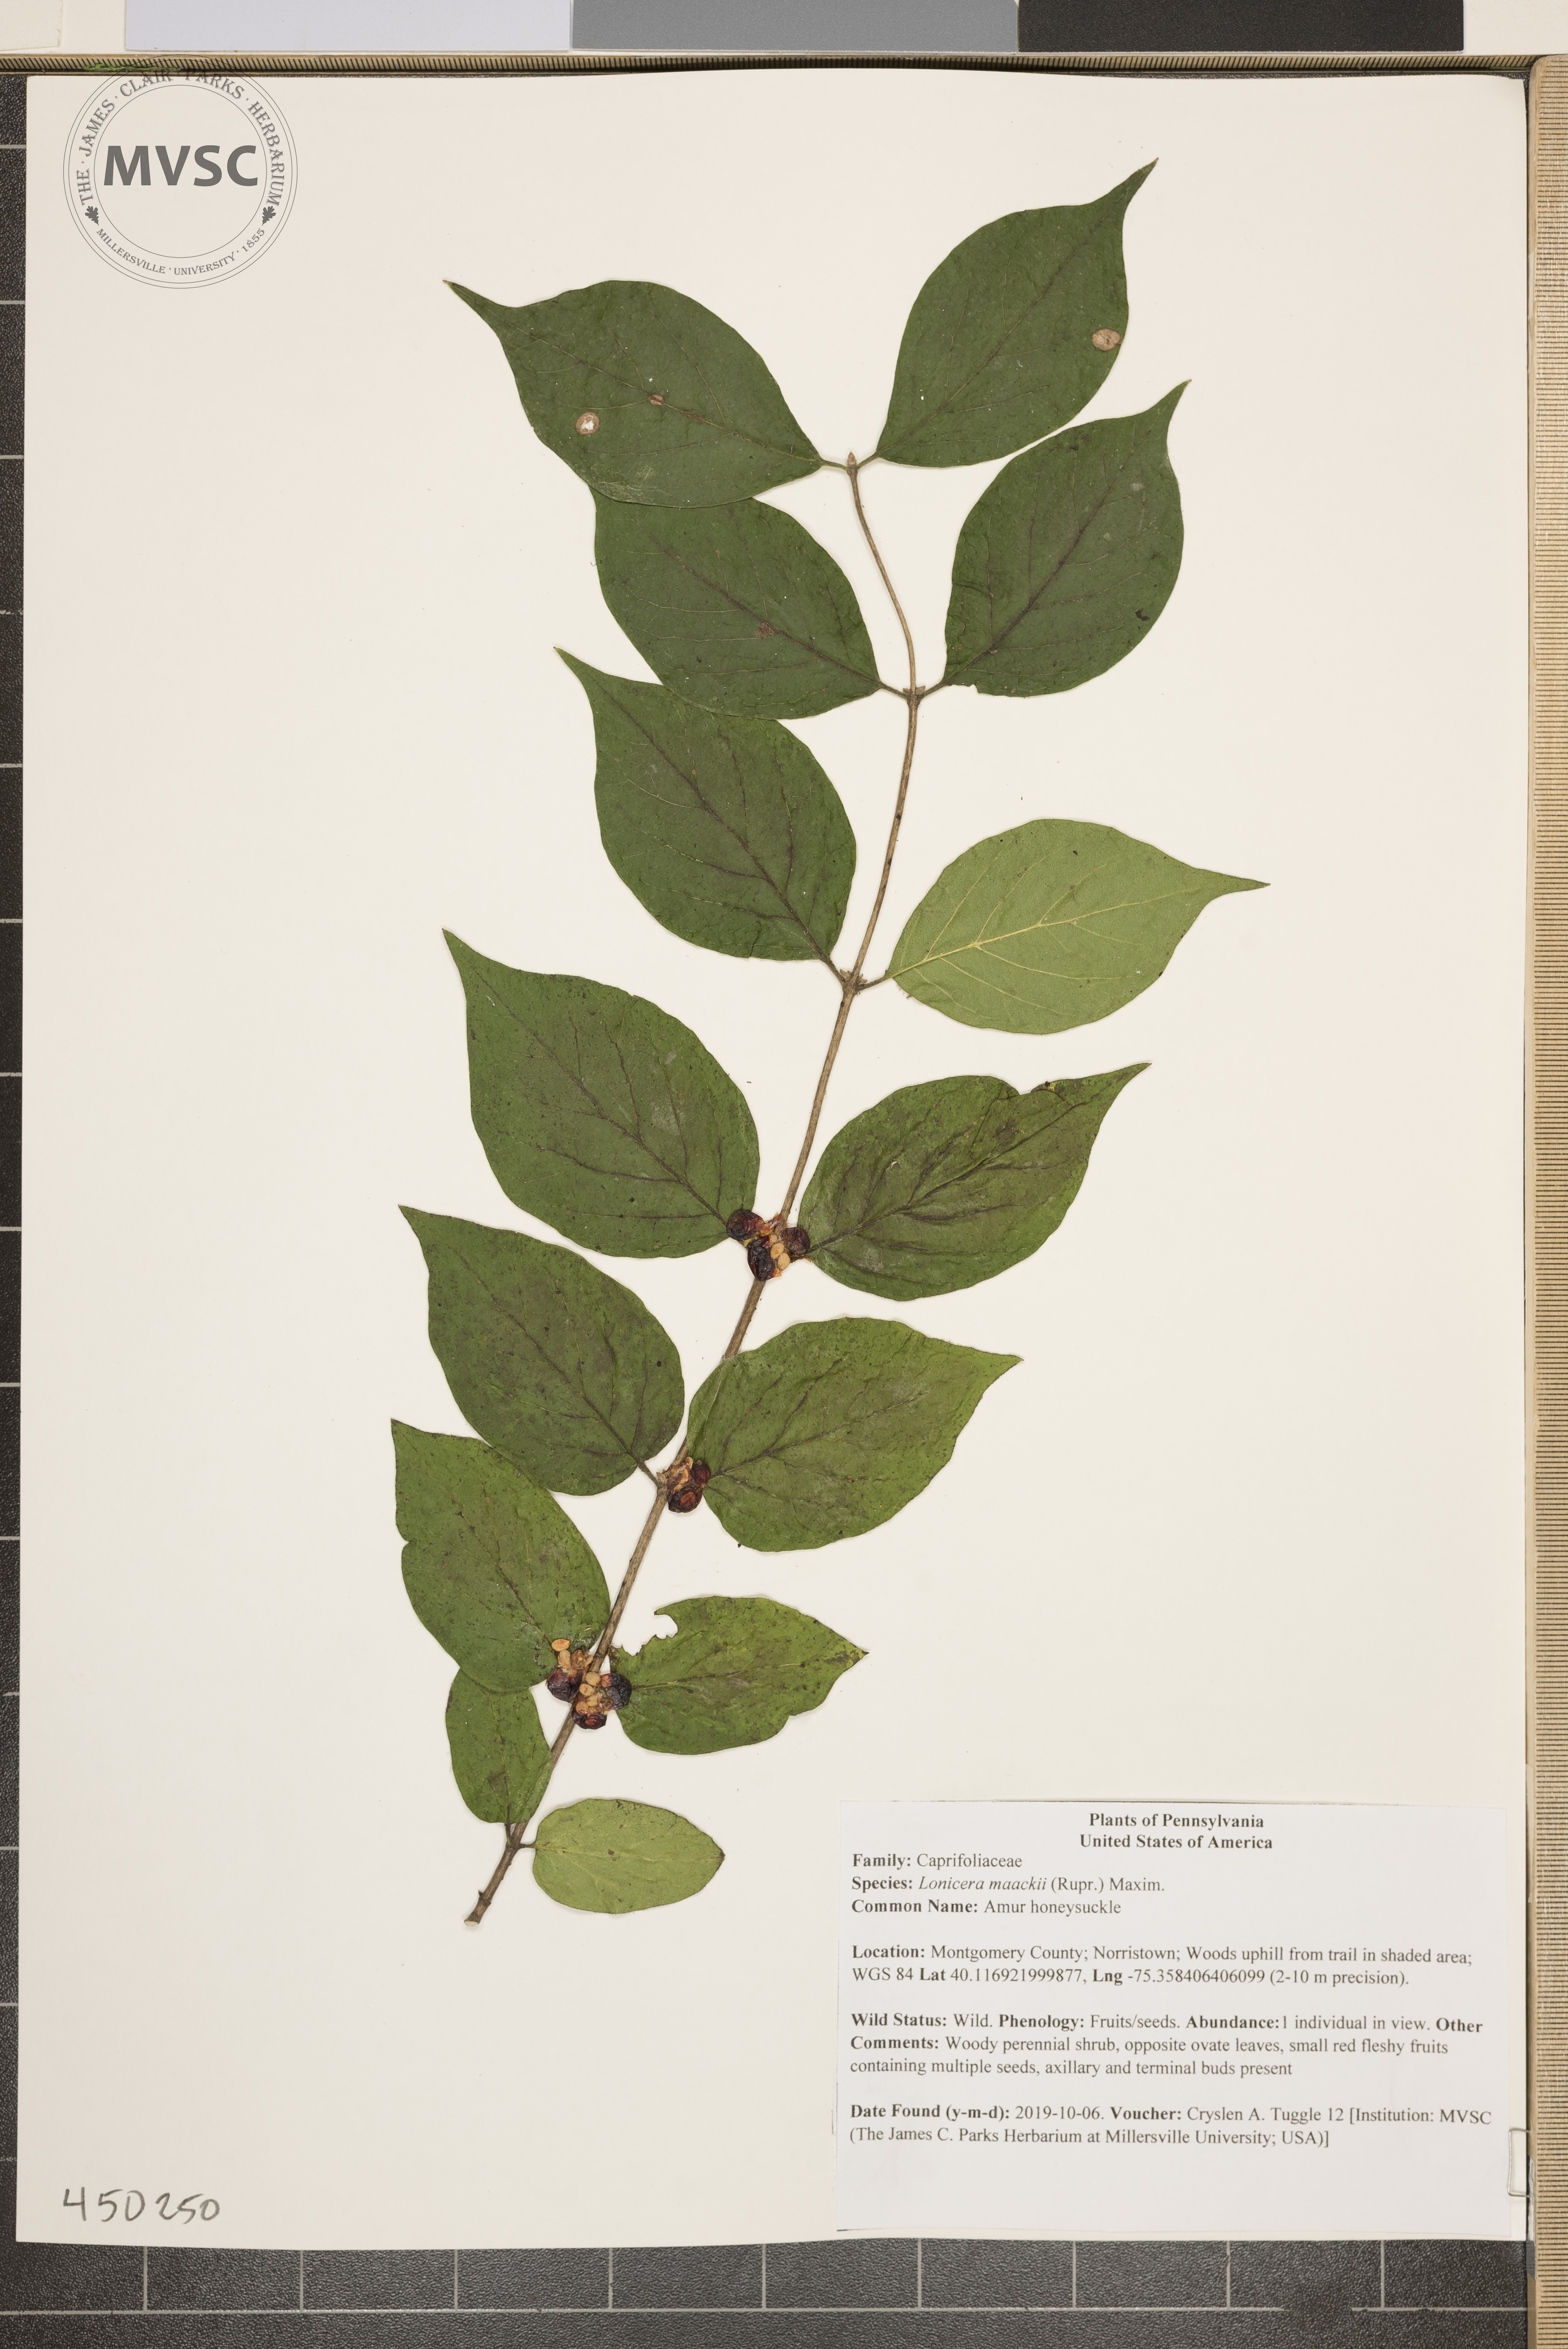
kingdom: Plantae
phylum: Tracheophyta
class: Magnoliopsida
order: Dipsacales
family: Caprifoliaceae
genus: Lonicera
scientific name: Lonicera maackii
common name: Amur honeysuckle
